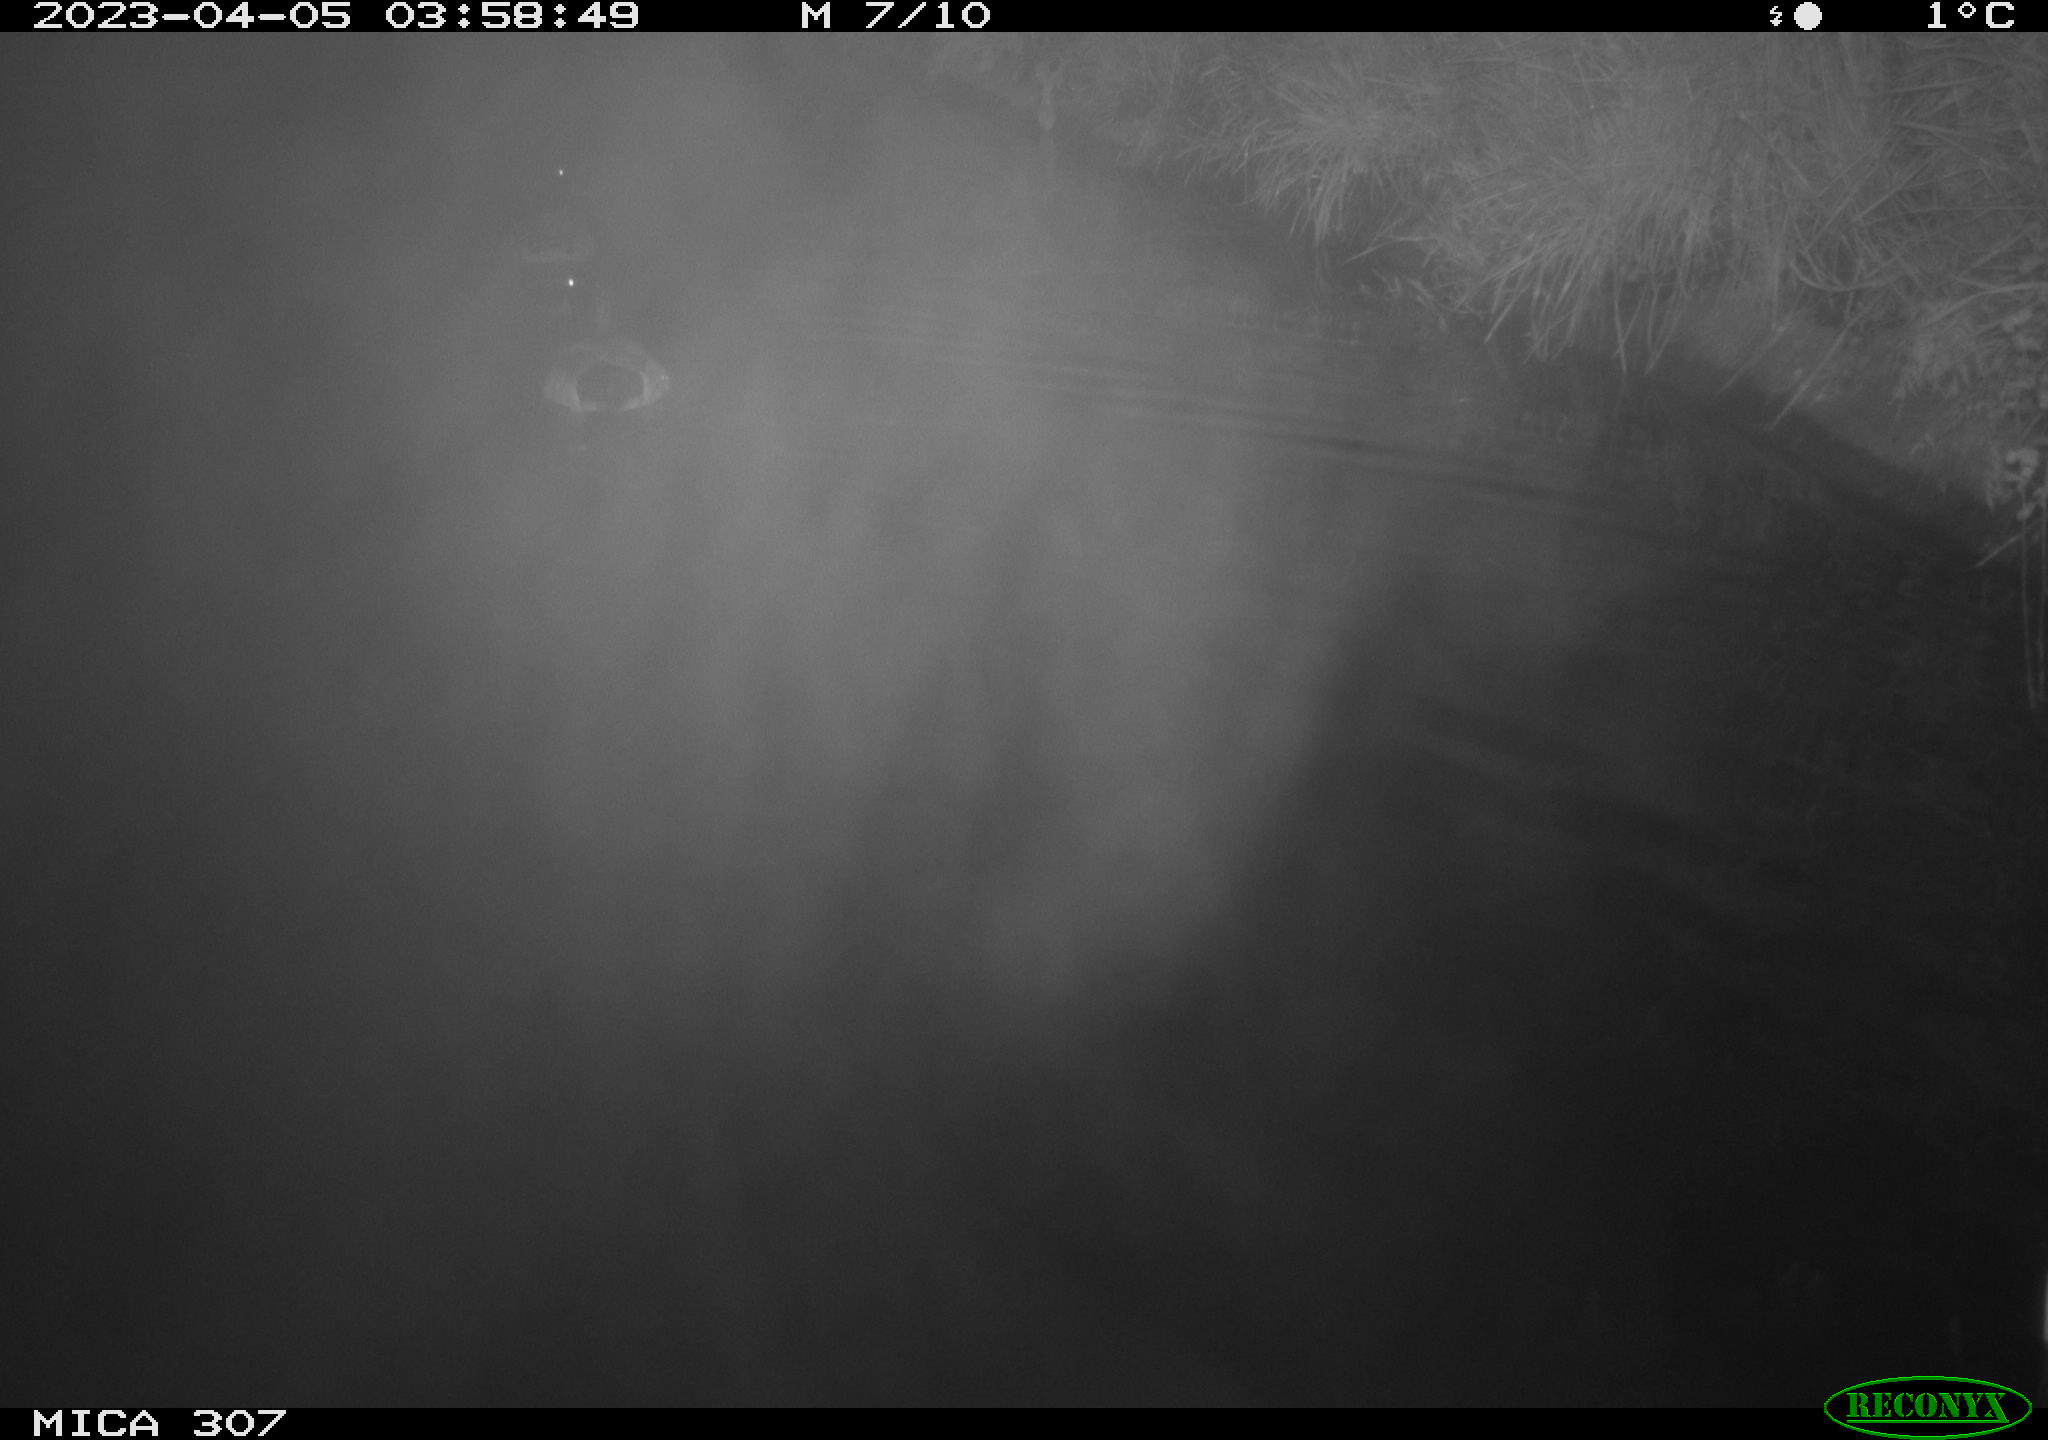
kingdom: Animalia
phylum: Chordata
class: Aves
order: Anseriformes
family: Anatidae
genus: Anas
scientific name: Anas
